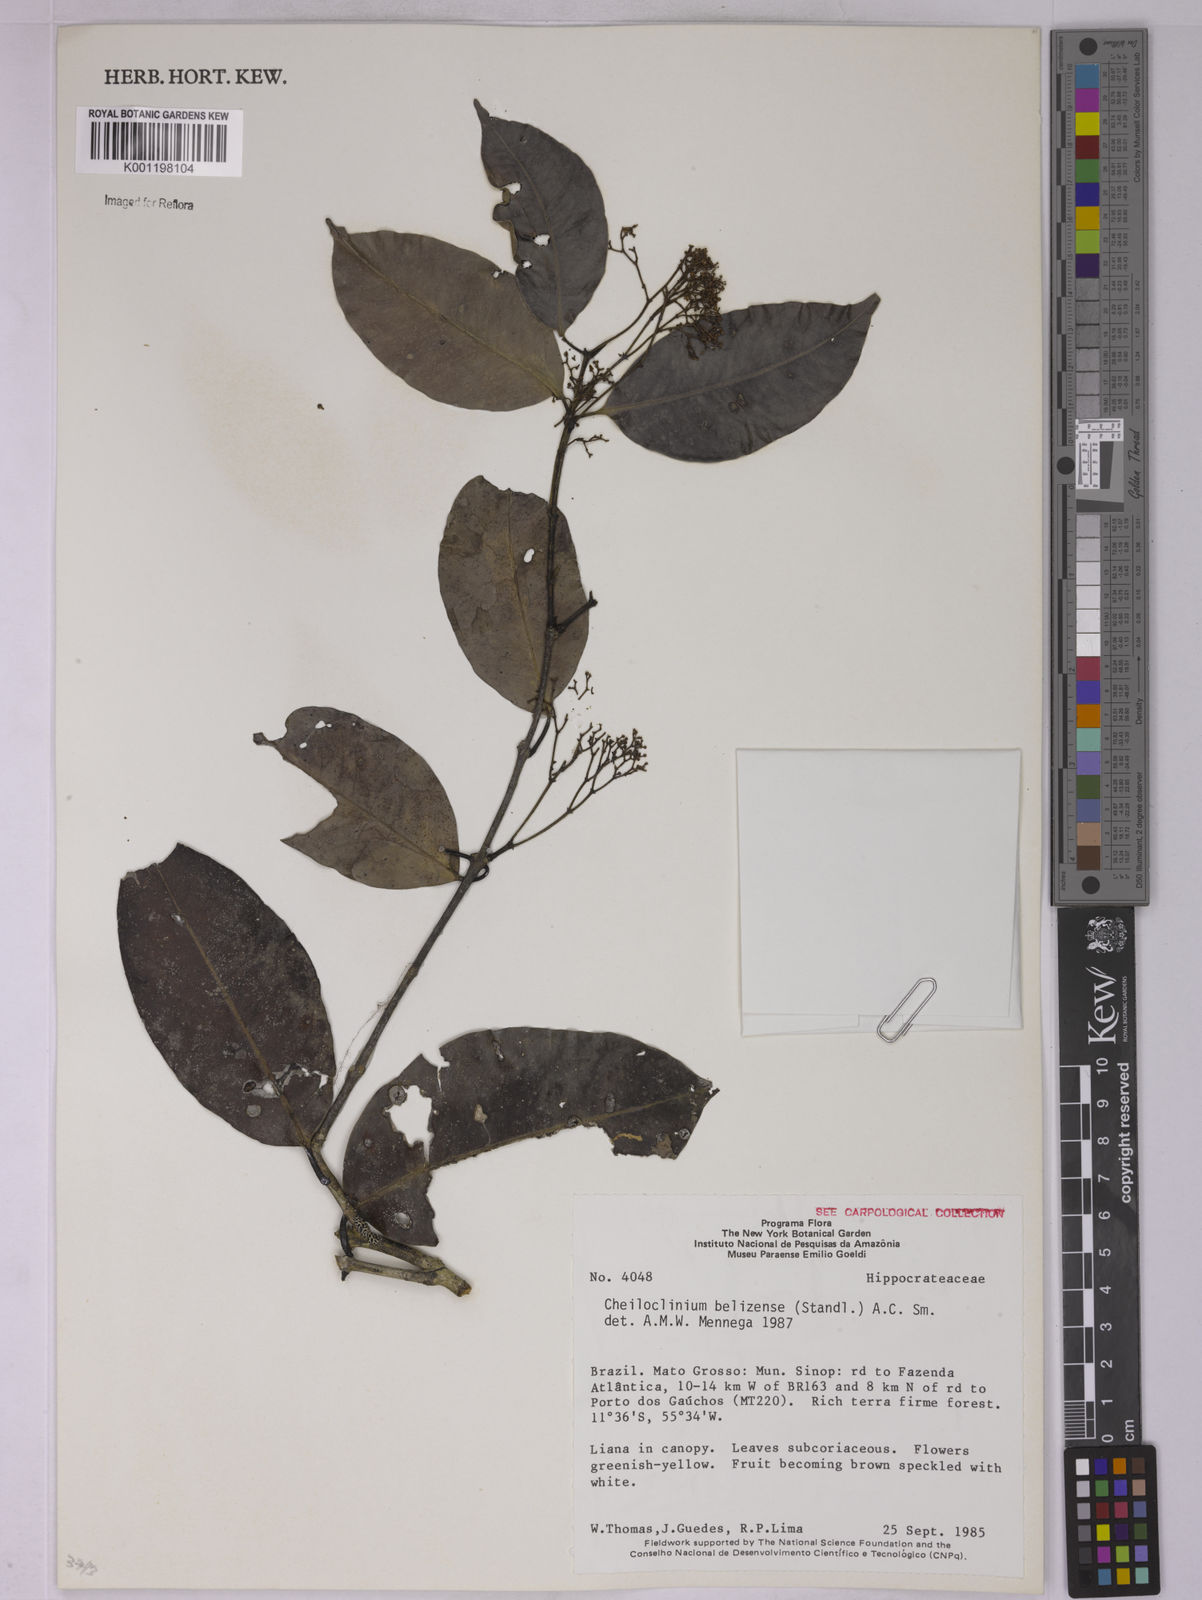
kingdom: Plantae
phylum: Tracheophyta
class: Magnoliopsida
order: Celastrales
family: Celastraceae
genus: Cheiloclinium
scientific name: Cheiloclinium belizense
